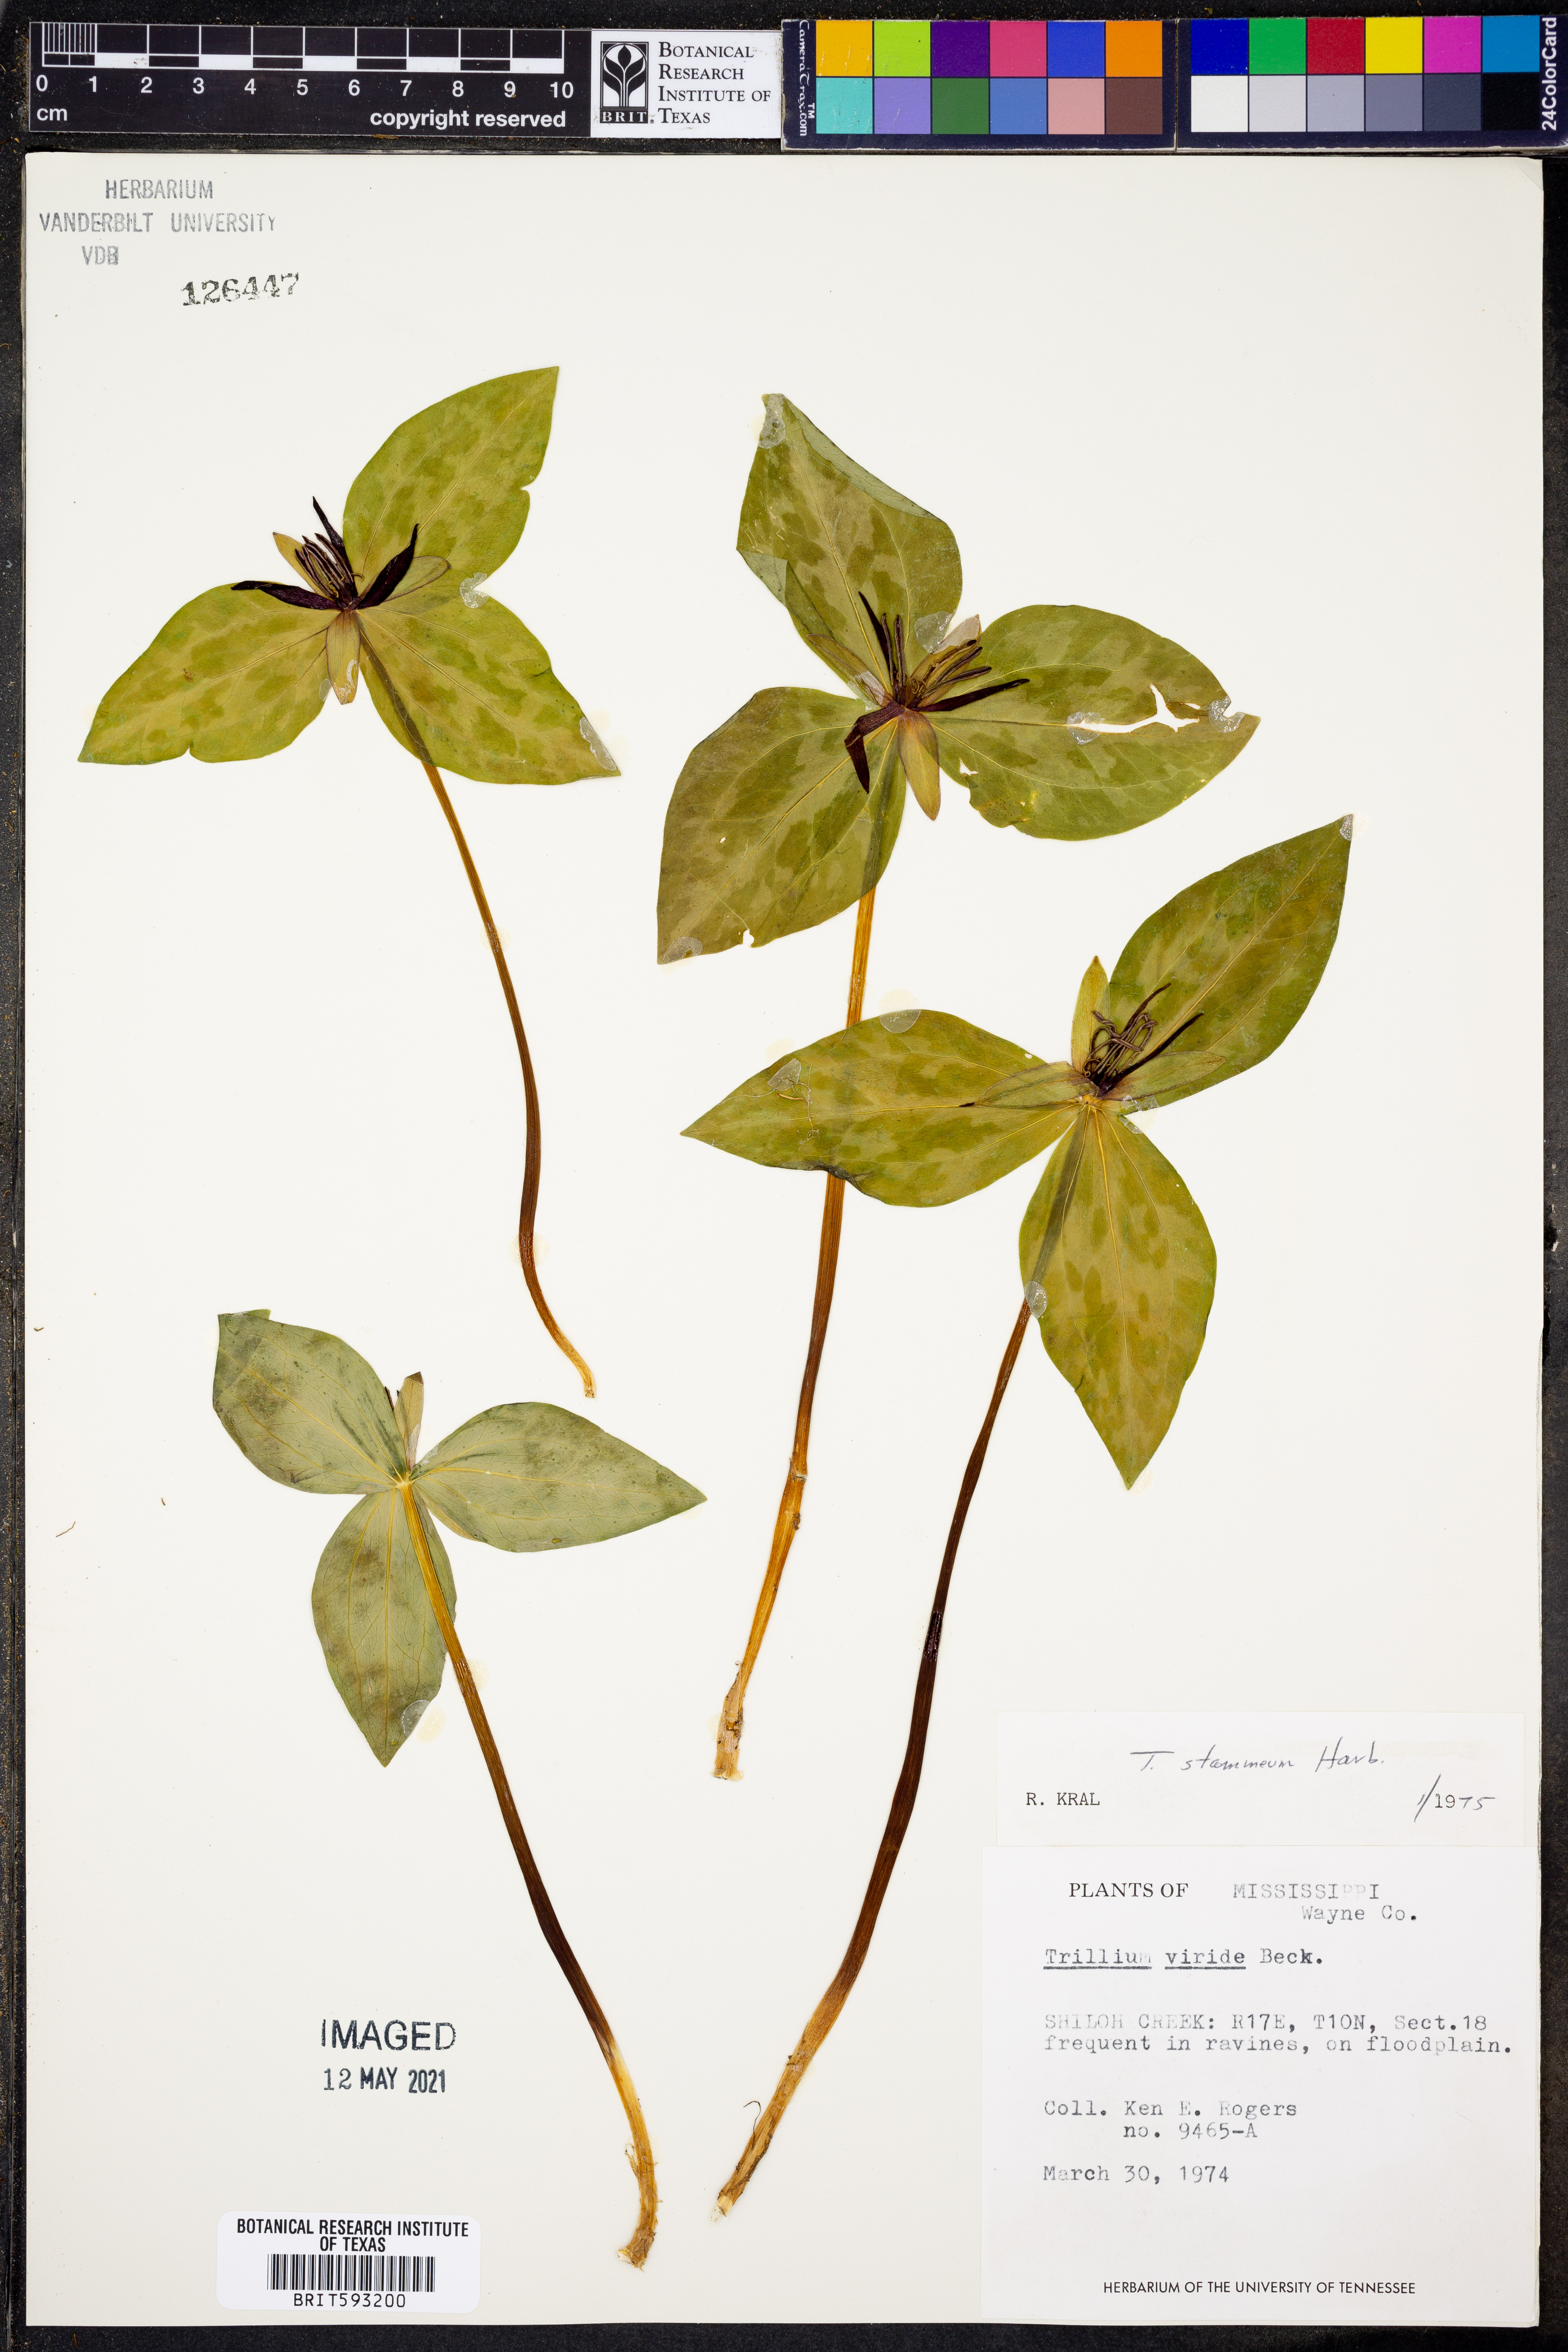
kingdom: Plantae
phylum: Tracheophyta
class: Liliopsida
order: Liliales
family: Melanthiaceae
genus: Trillium
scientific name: Trillium stamineum
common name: Blue ridge wakerobin
